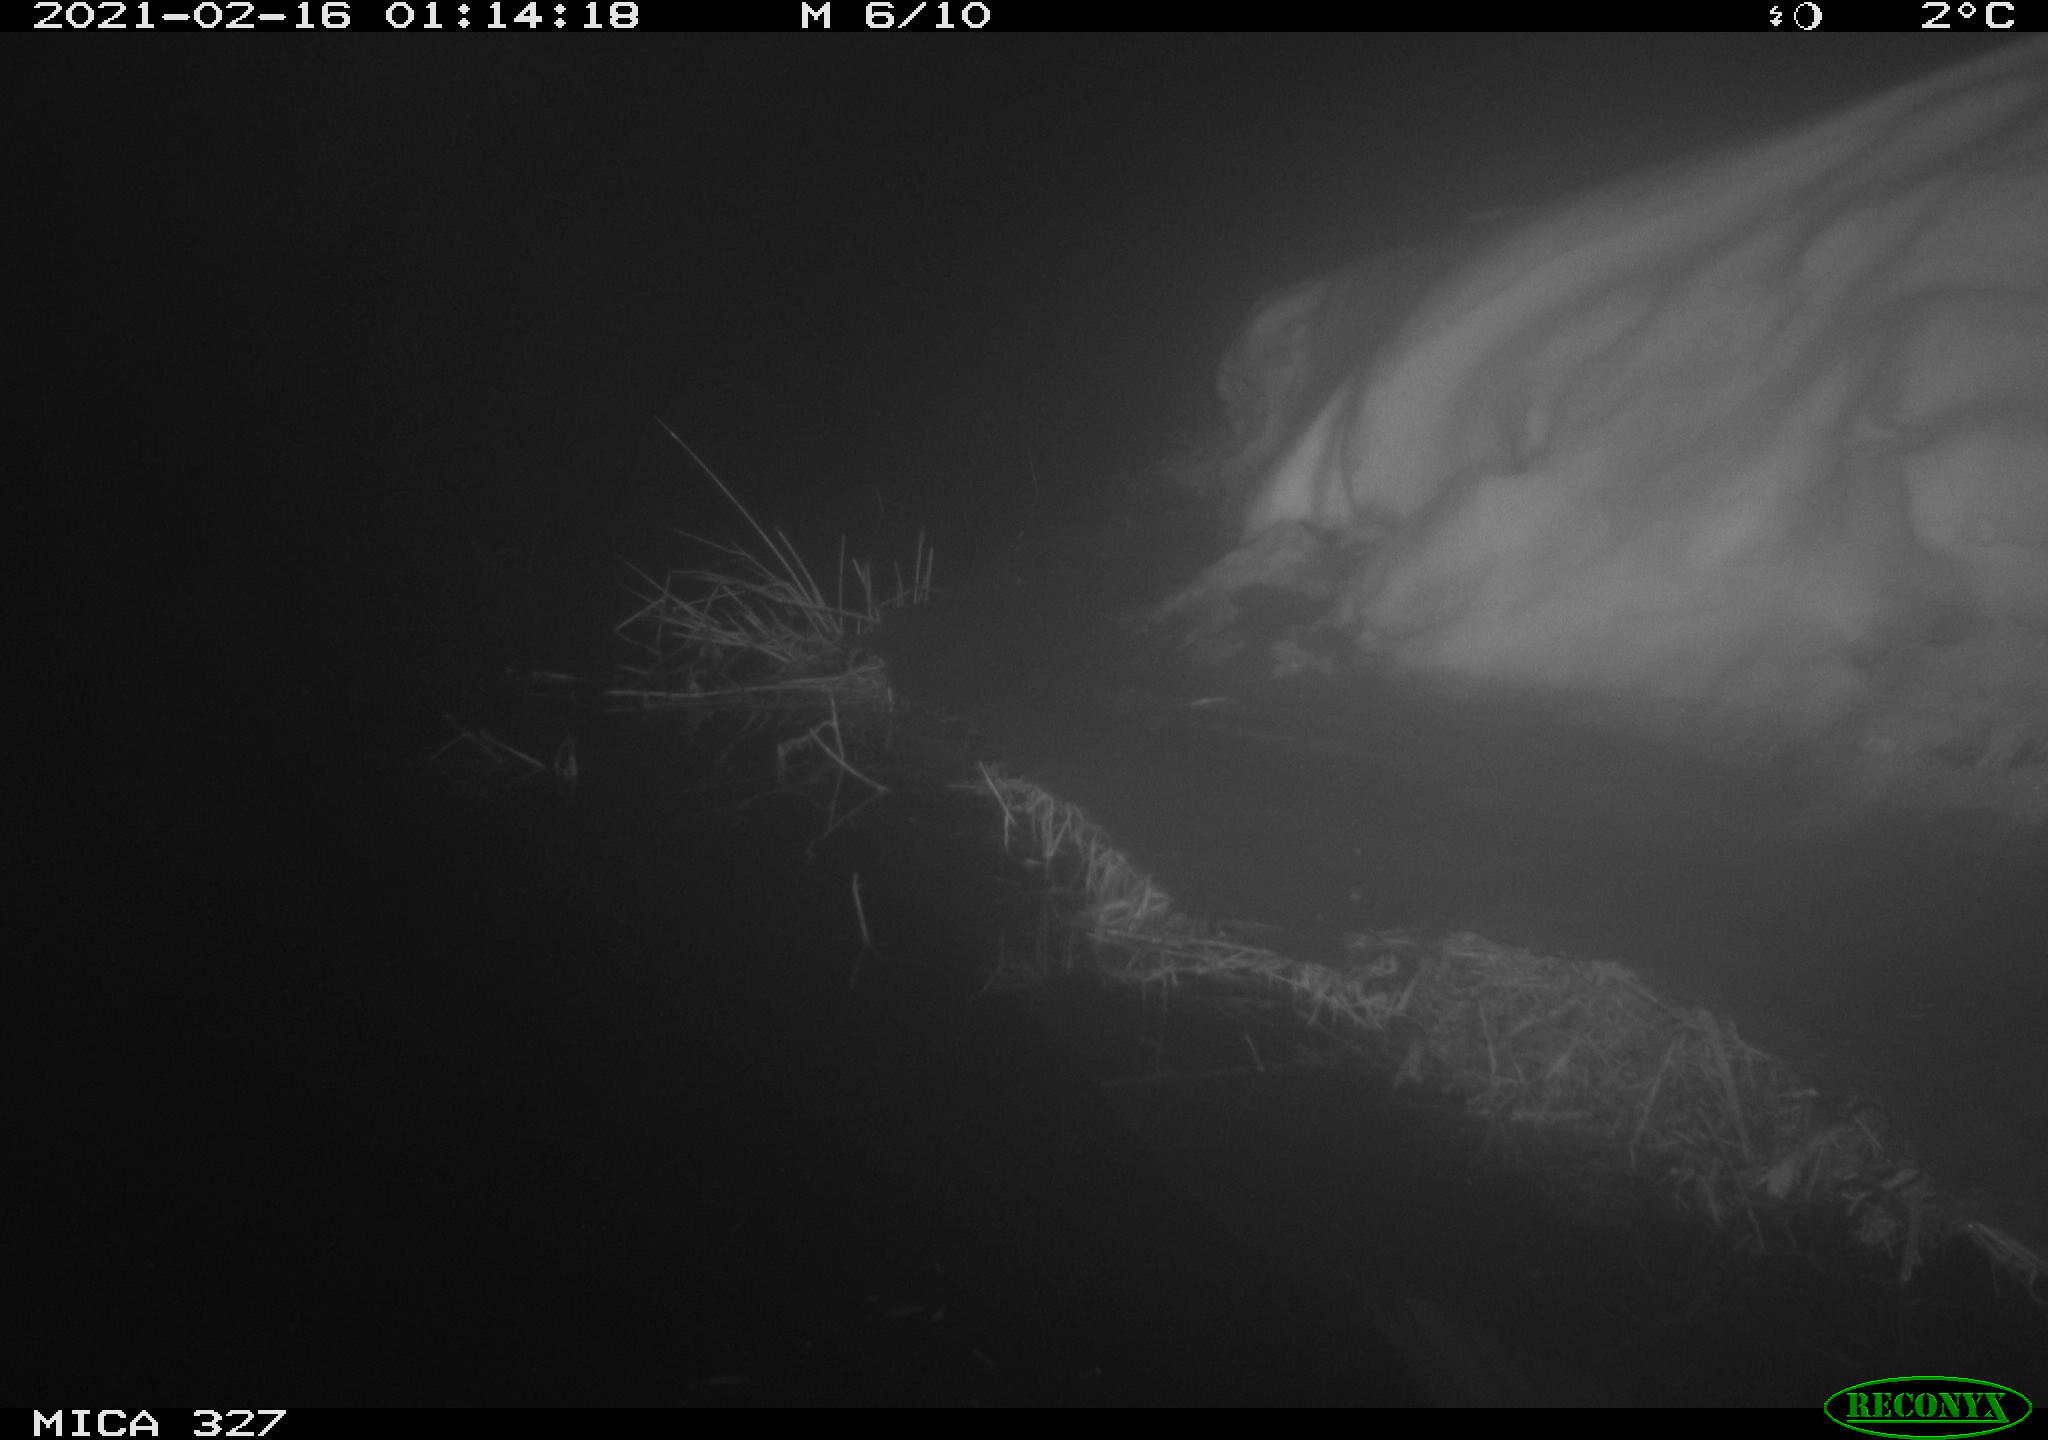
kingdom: Animalia
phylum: Chordata
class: Mammalia
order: Rodentia
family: Cricetidae
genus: Ondatra
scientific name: Ondatra zibethicus
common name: Muskrat
